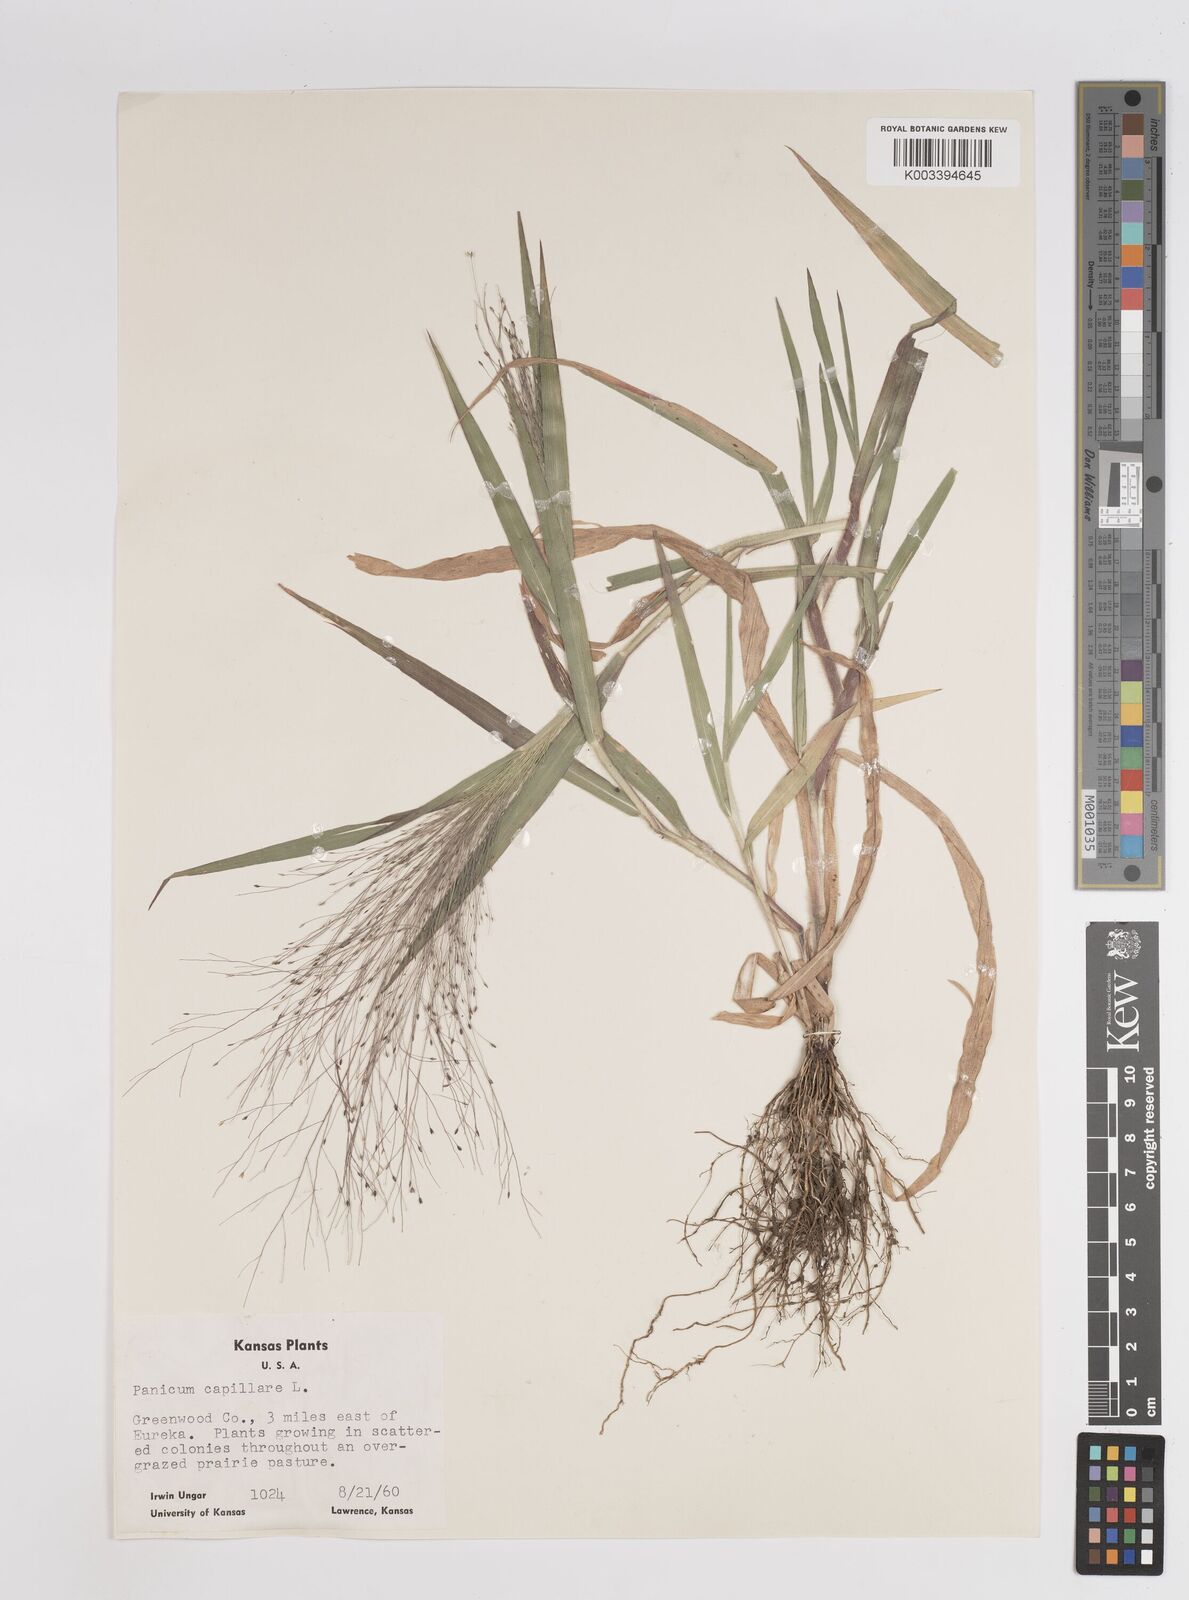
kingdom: Plantae
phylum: Tracheophyta
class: Liliopsida
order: Poales
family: Poaceae
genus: Panicum
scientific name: Panicum capillare
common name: Witch-grass
